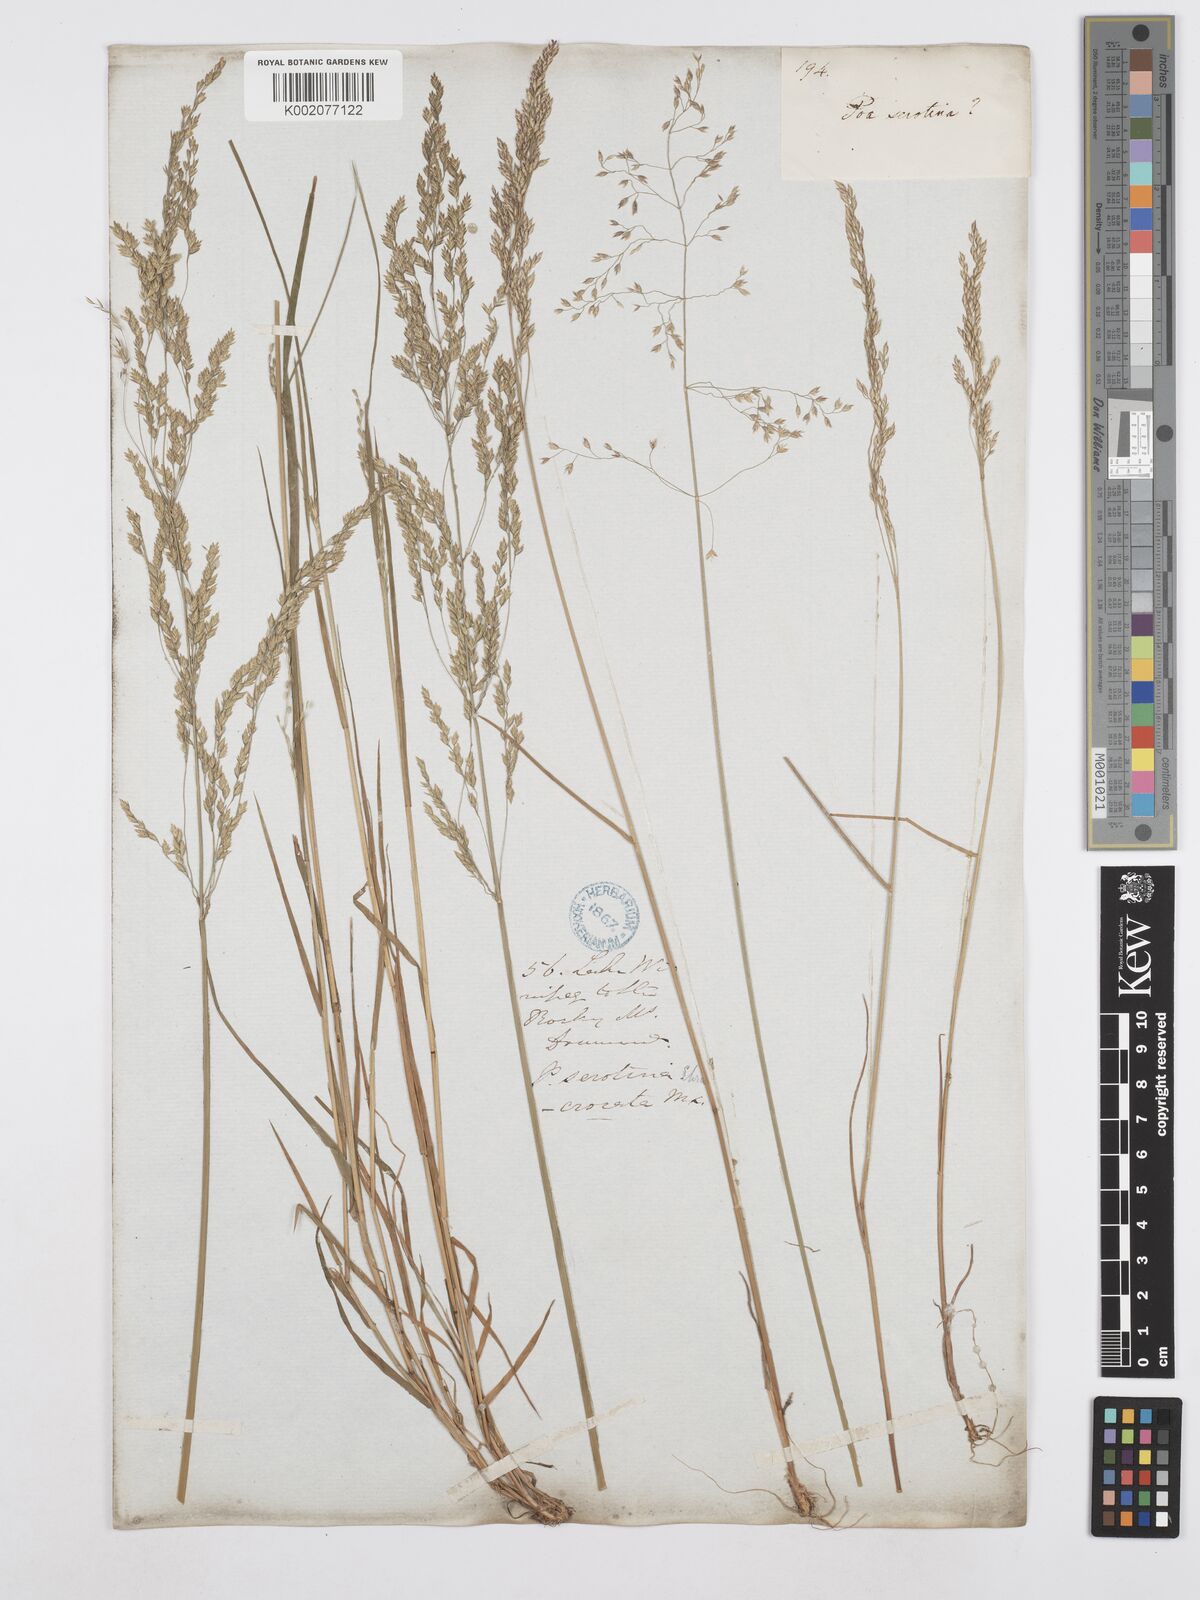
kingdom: Plantae
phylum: Tracheophyta
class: Liliopsida
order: Poales
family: Poaceae
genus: Poa
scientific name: Poa palustris
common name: Swamp meadow-grass
